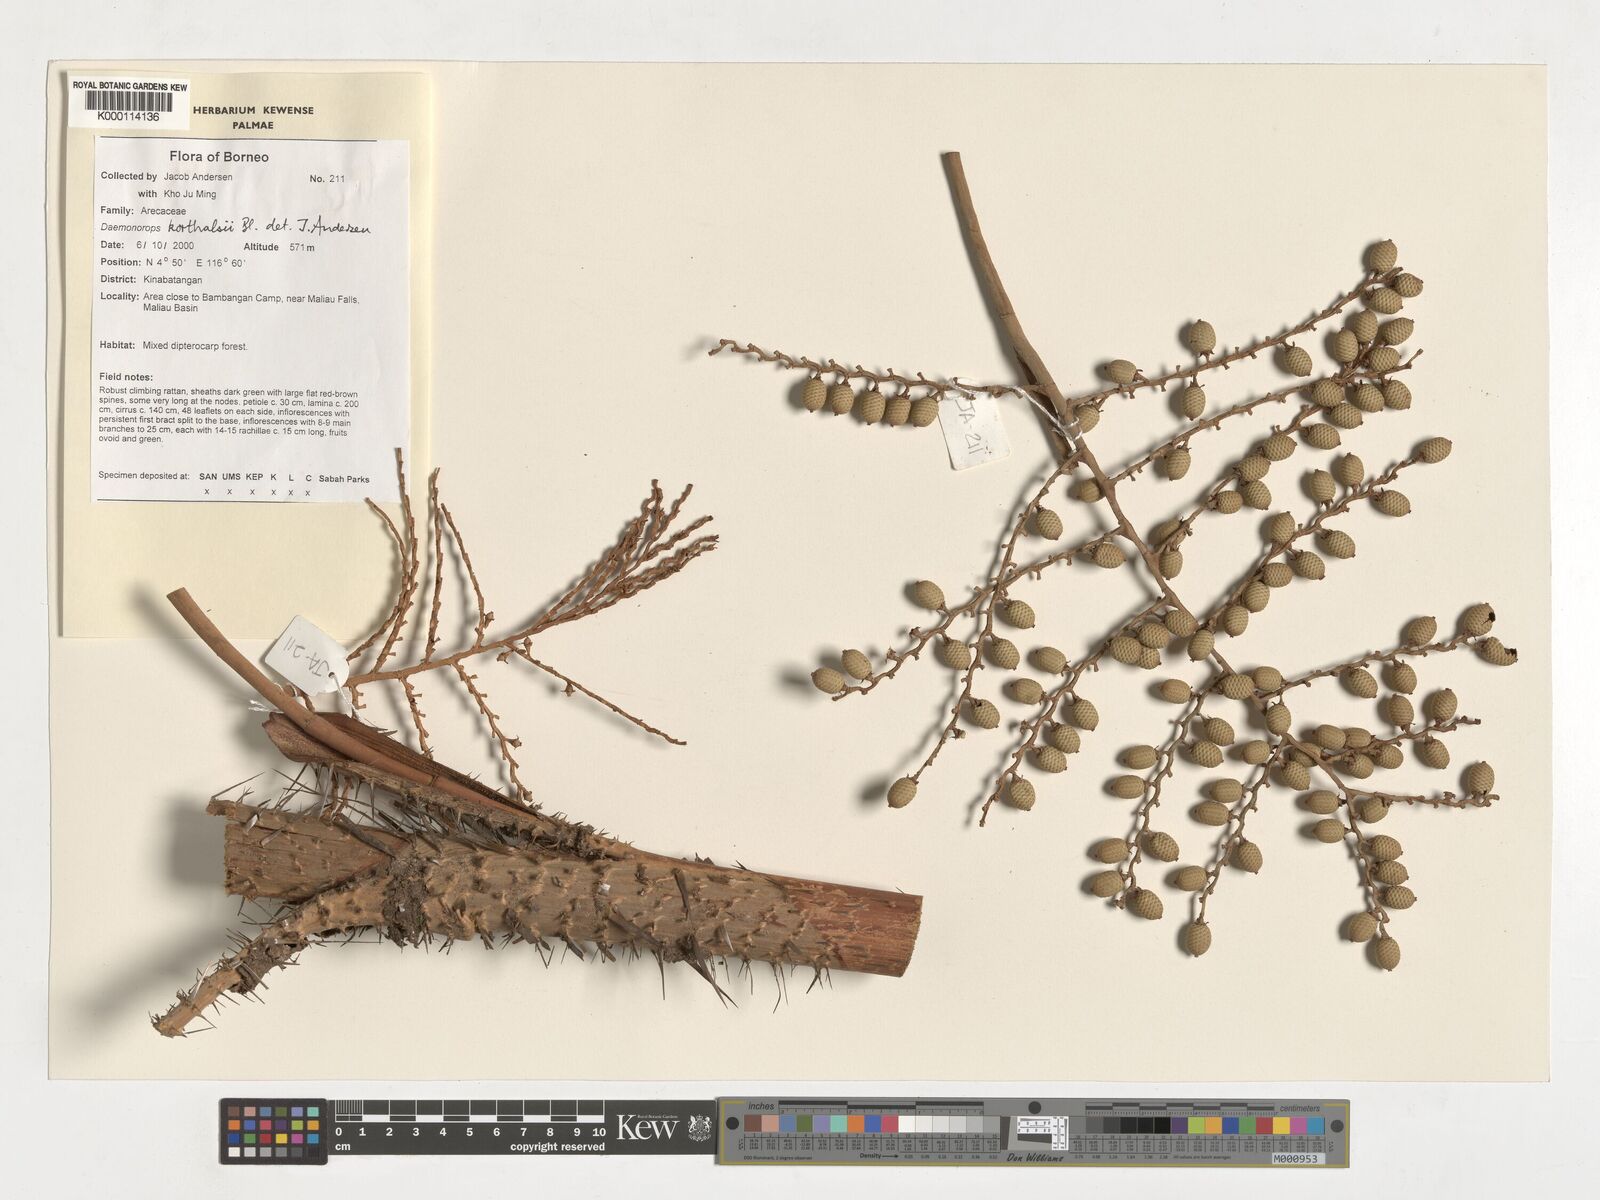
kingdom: Plantae
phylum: Tracheophyta
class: Liliopsida
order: Arecales
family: Arecaceae
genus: Calamus
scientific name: Calamus hirsutus
